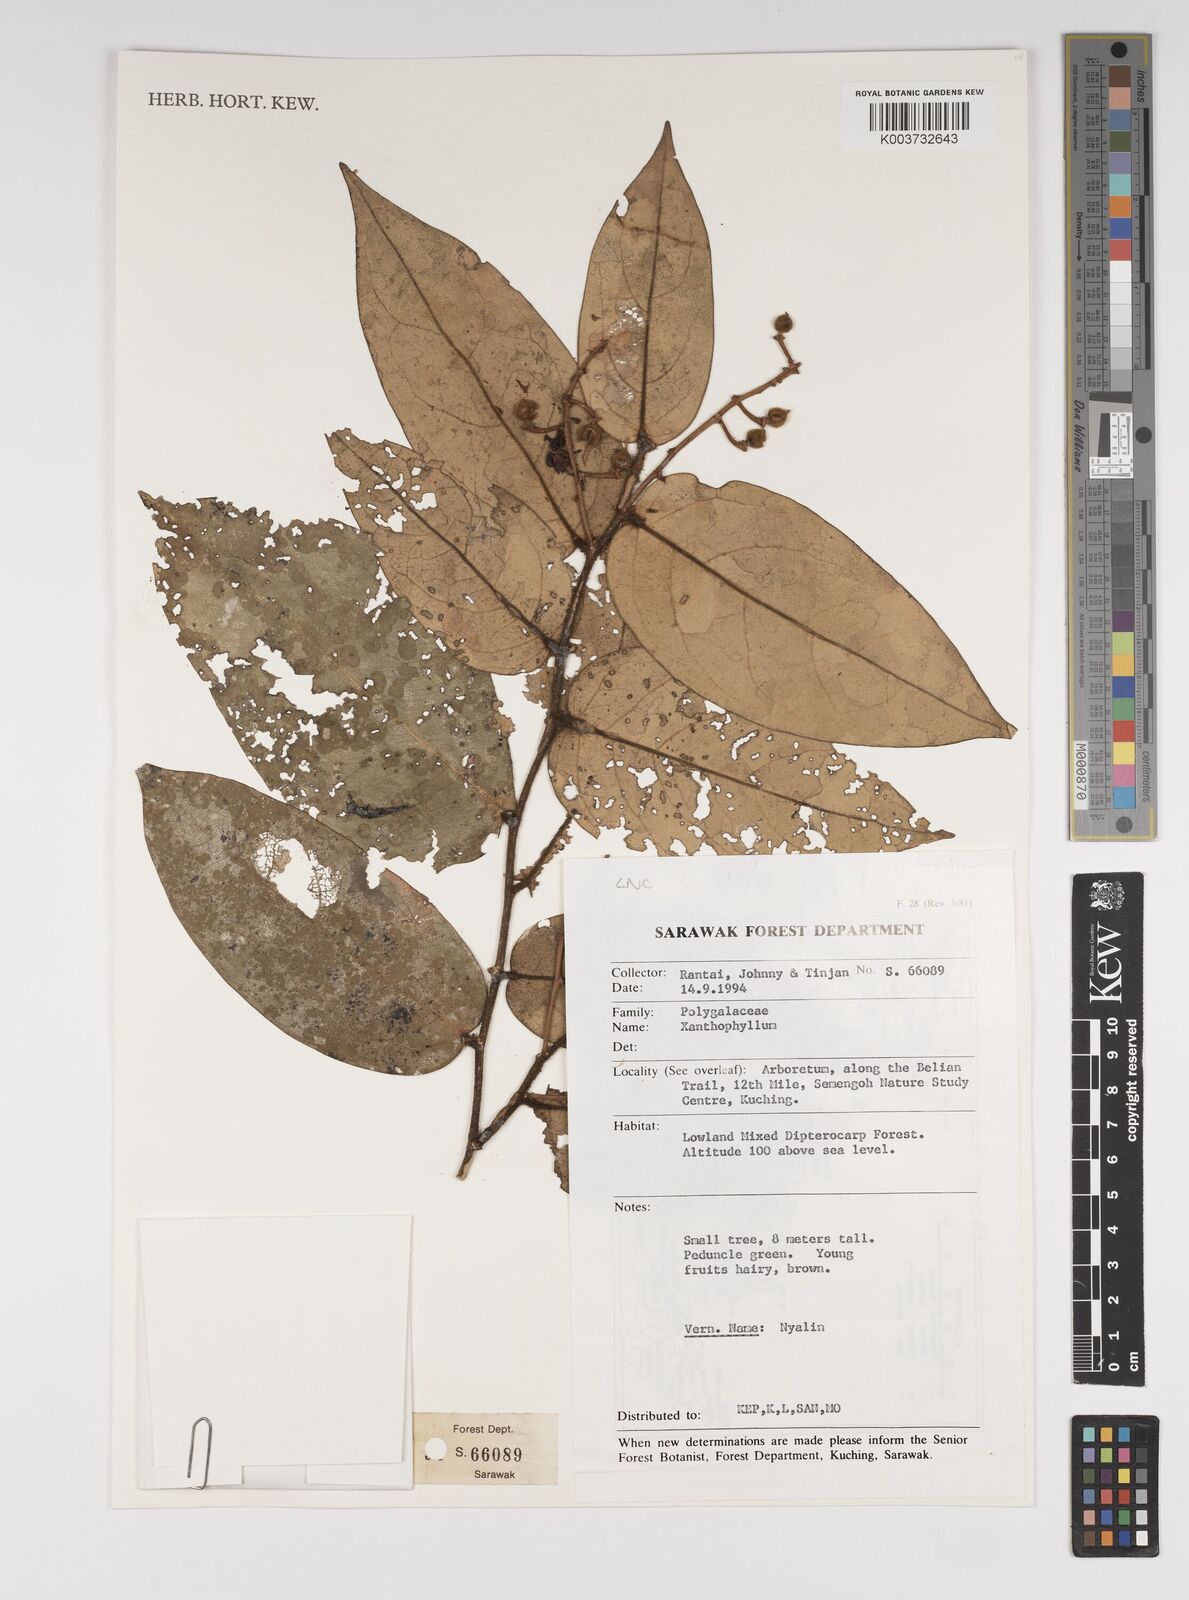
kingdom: Plantae
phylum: Tracheophyta
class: Magnoliopsida
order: Fabales
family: Polygalaceae
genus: Xanthophyllum
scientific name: Xanthophyllum
